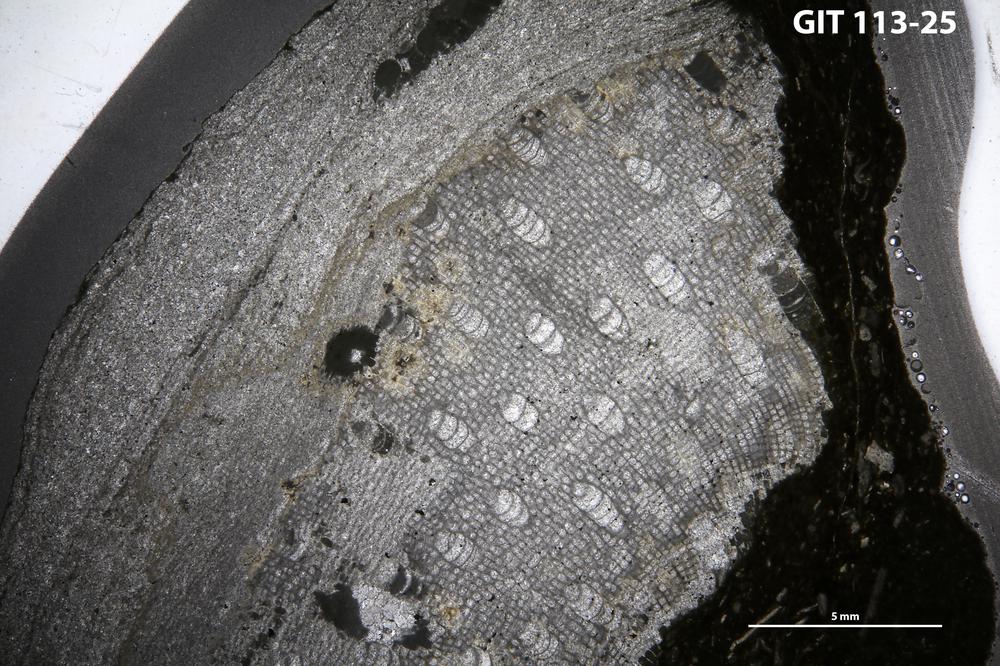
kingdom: Animalia
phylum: Porifera
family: Clathrodictyidae
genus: Clathrodictyon
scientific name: Clathrodictyon vormsiense
